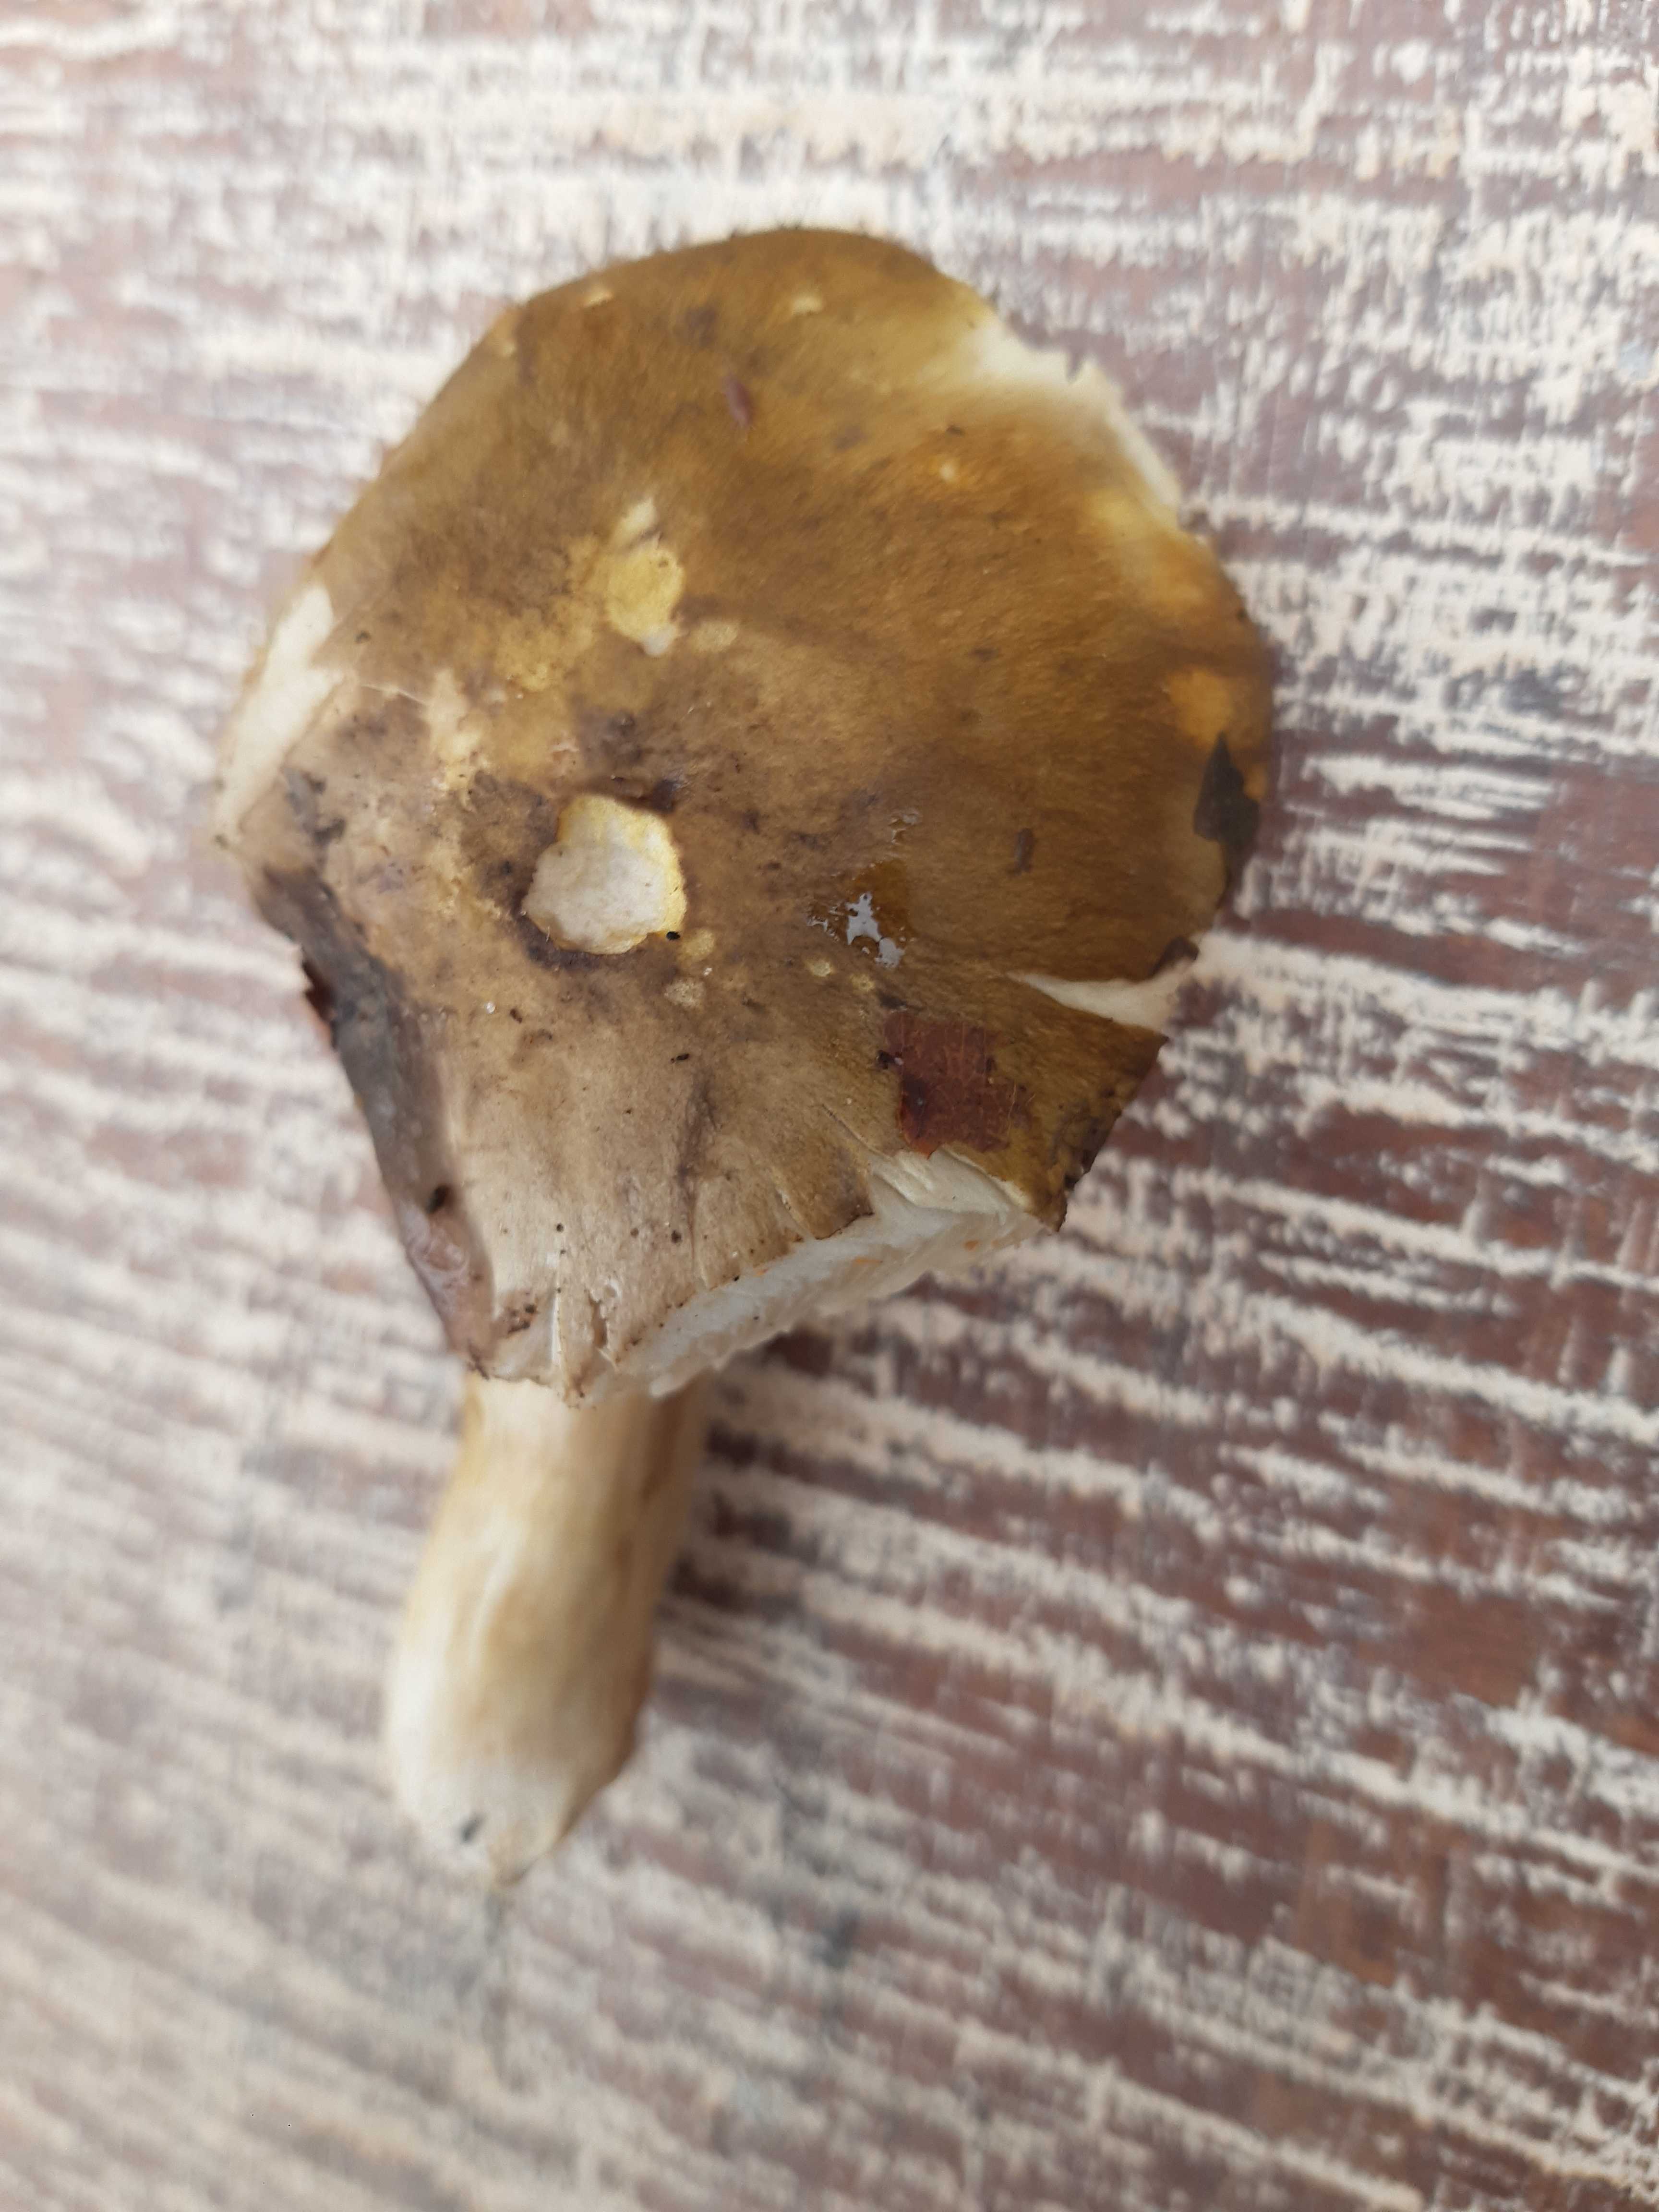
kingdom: Fungi
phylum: Basidiomycota
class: Agaricomycetes
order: Agaricales
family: Tricholomataceae
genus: Tricholoma
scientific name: Tricholoma
